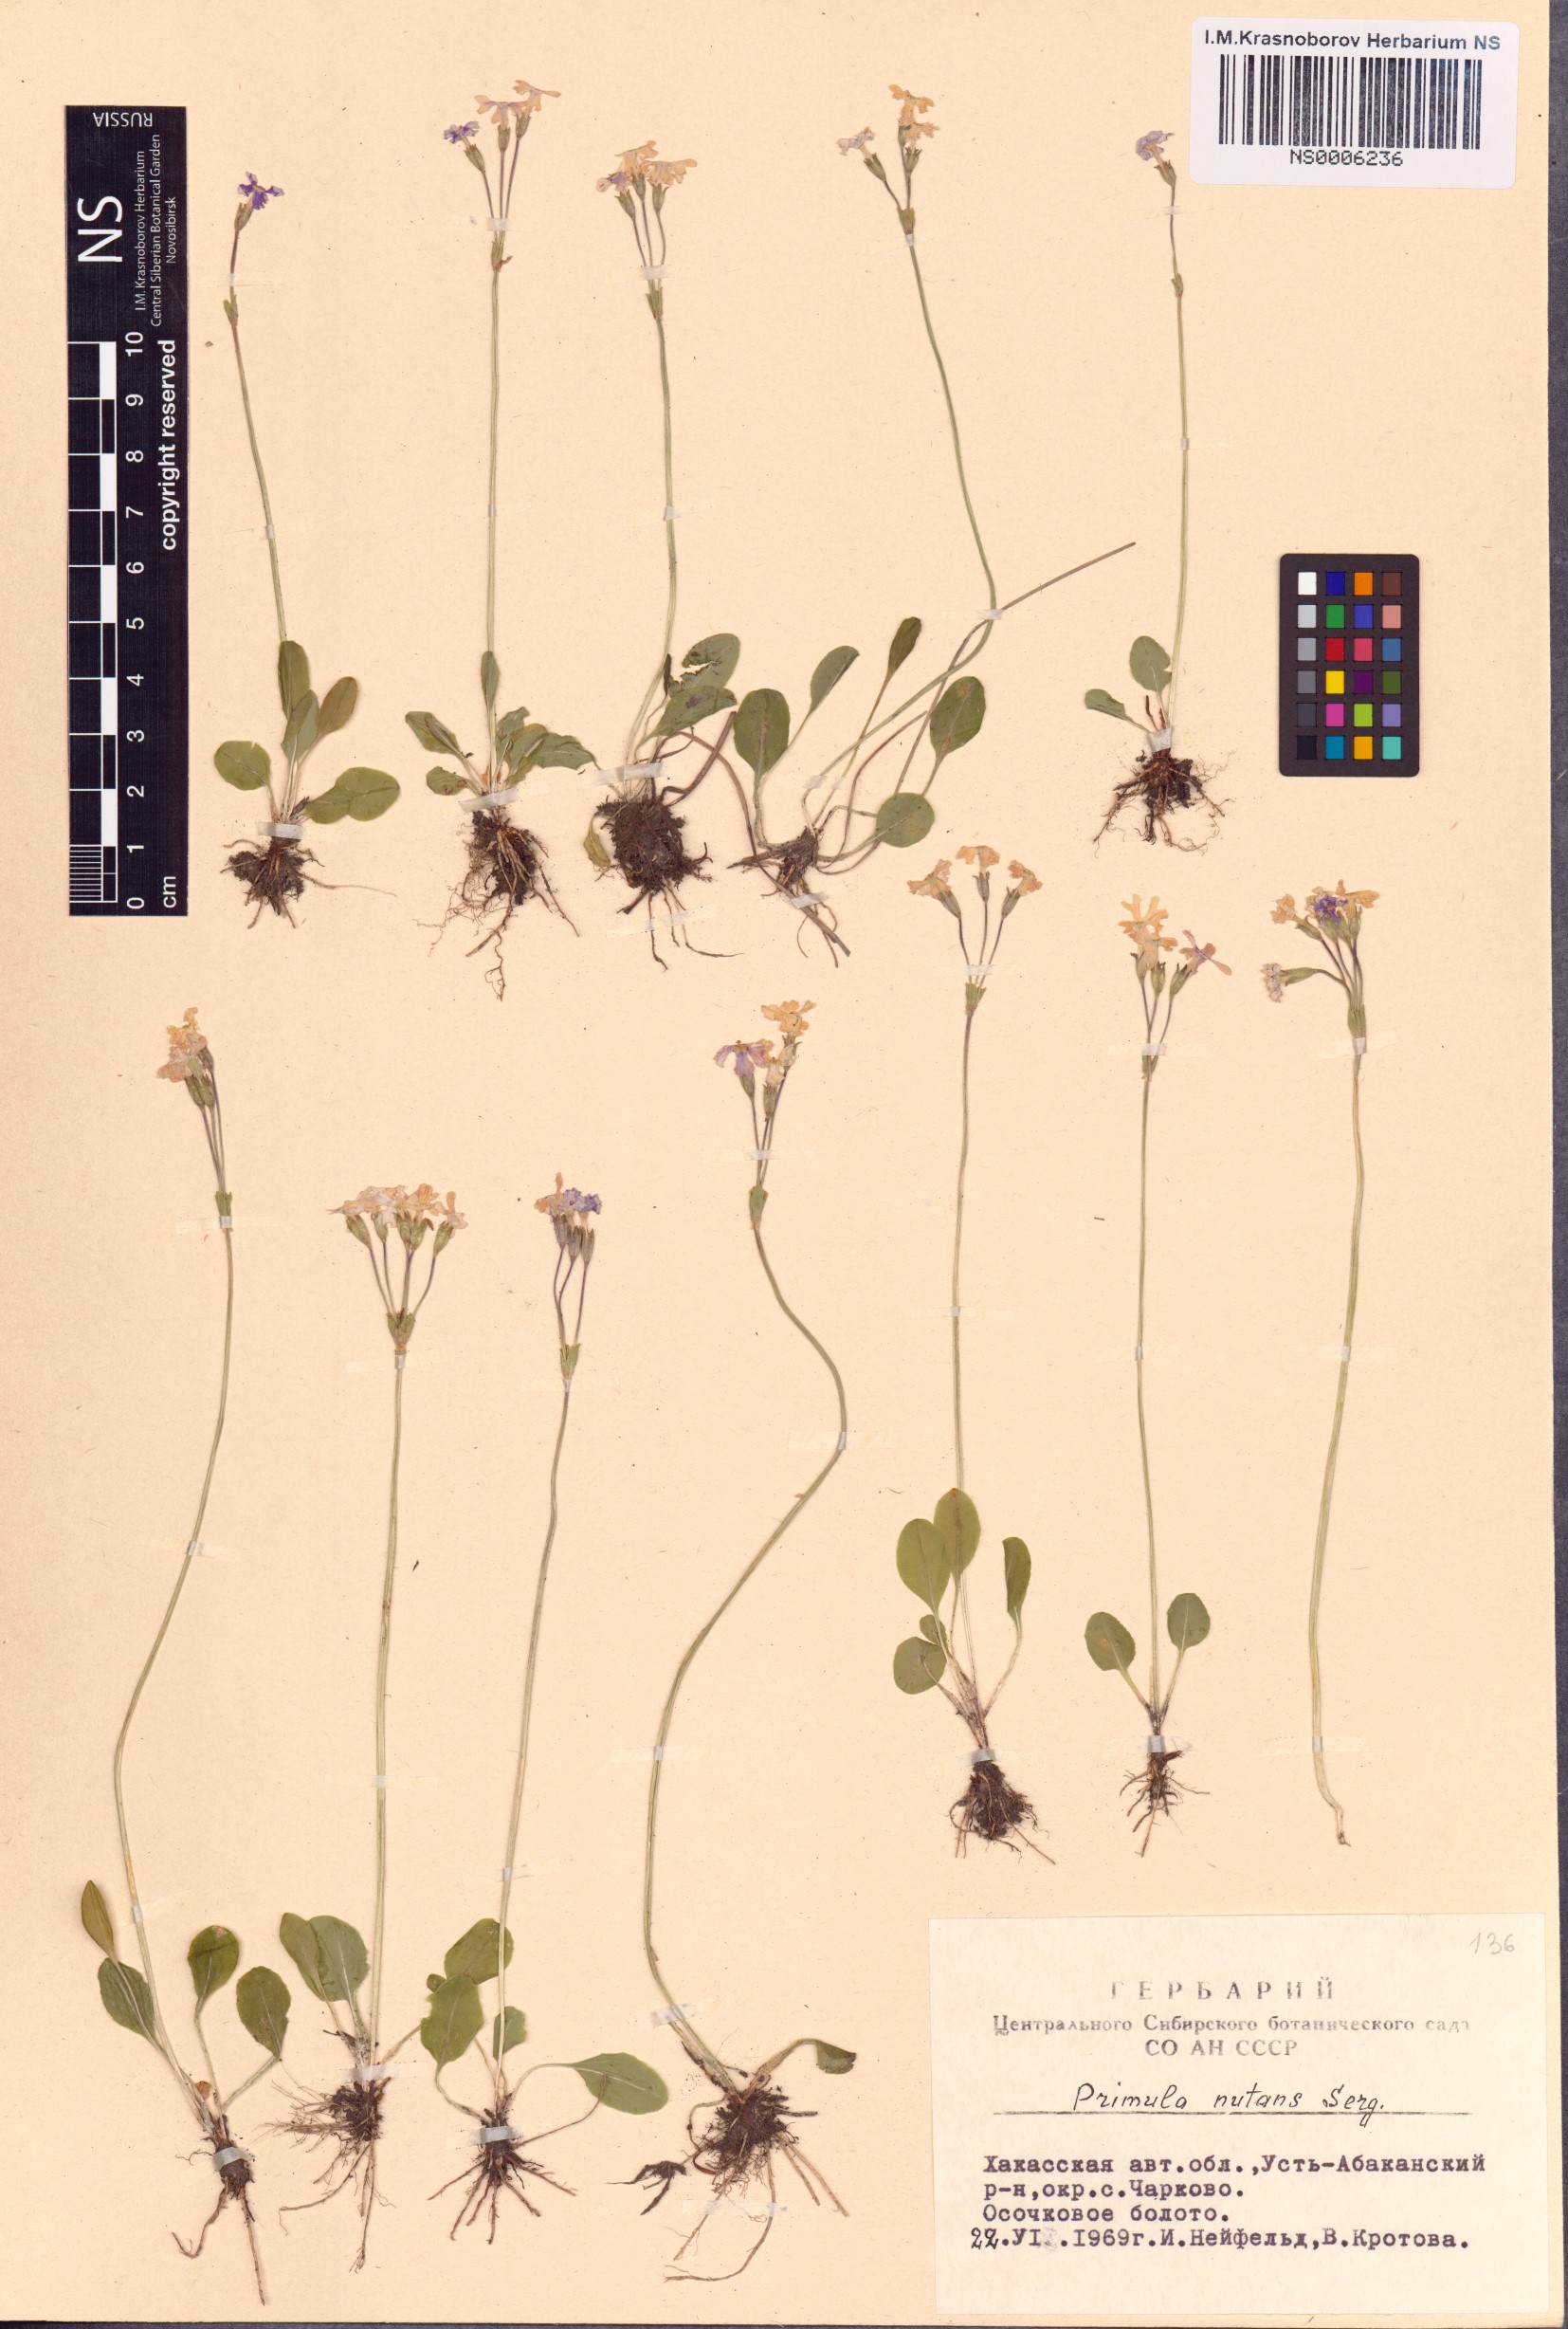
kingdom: Plantae
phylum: Tracheophyta
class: Magnoliopsida
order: Ericales
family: Primulaceae
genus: Primula
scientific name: Primula nutans
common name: Siberian primrose
